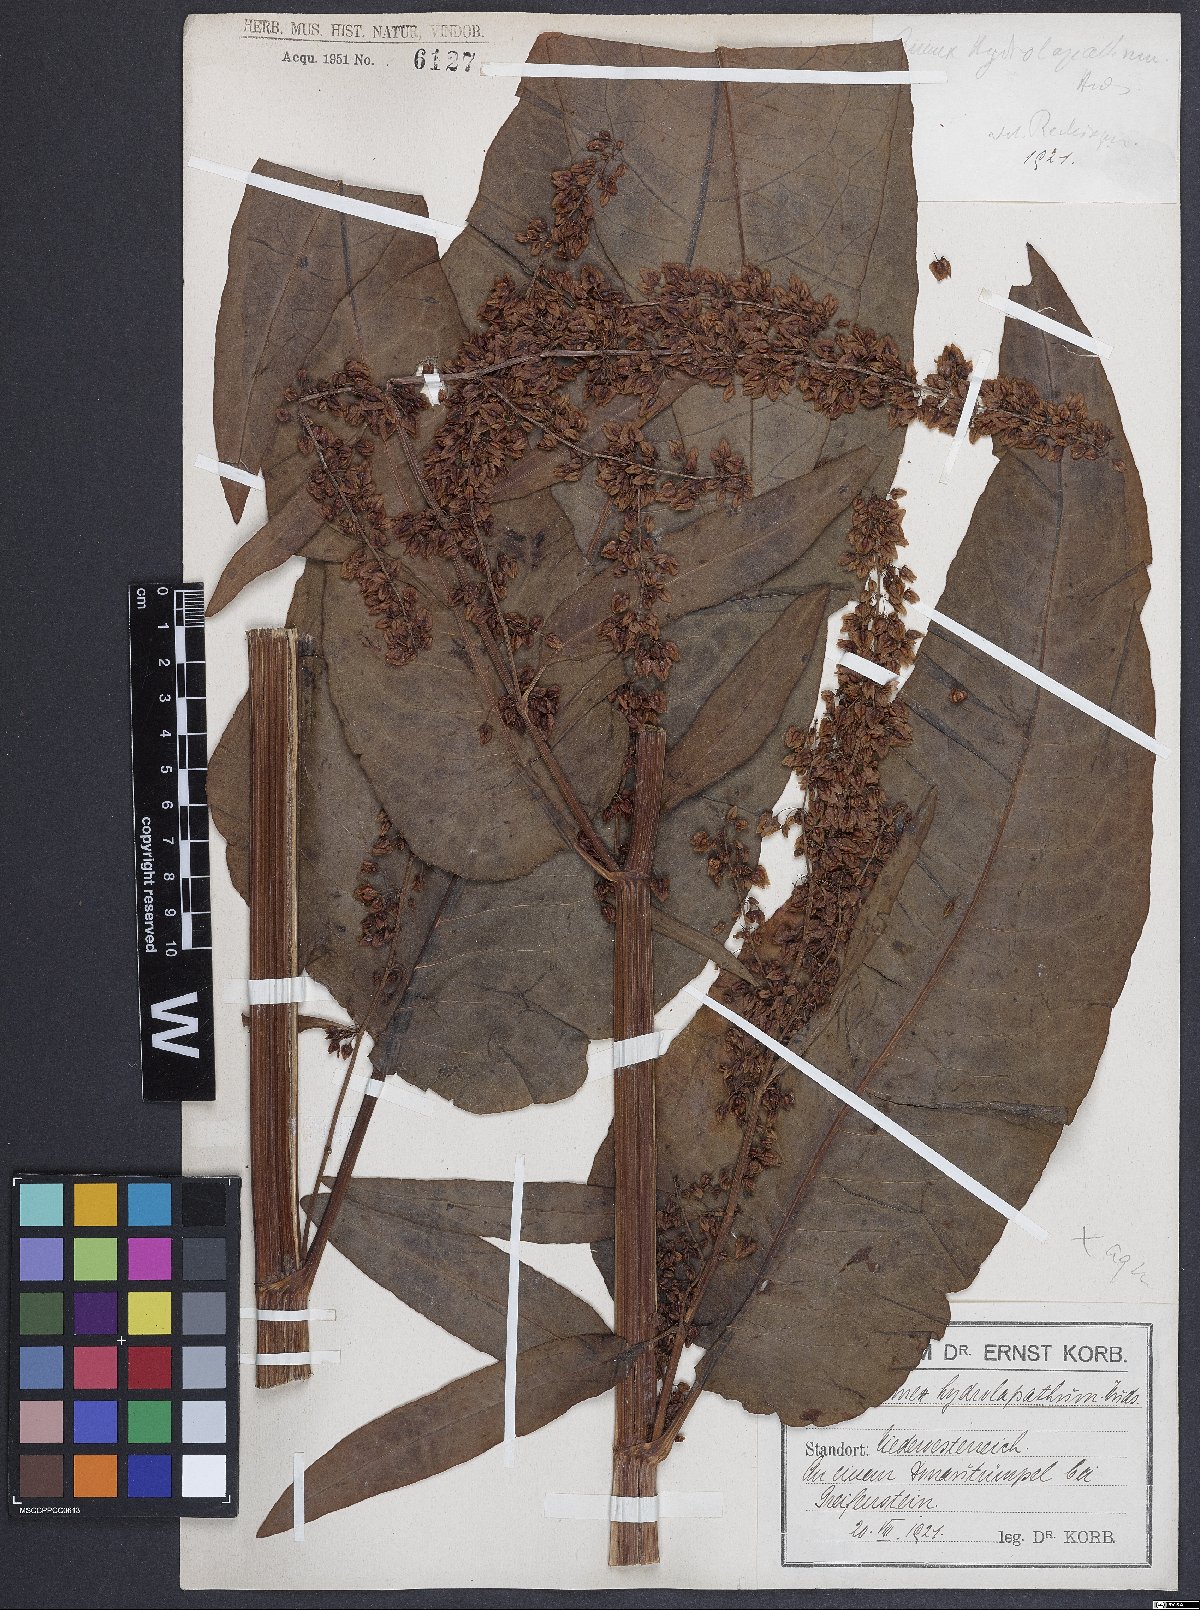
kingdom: Plantae
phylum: Tracheophyta
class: Magnoliopsida
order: Caryophyllales
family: Polygonaceae
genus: Rumex
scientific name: Rumex hydrolapathum
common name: Water dock
